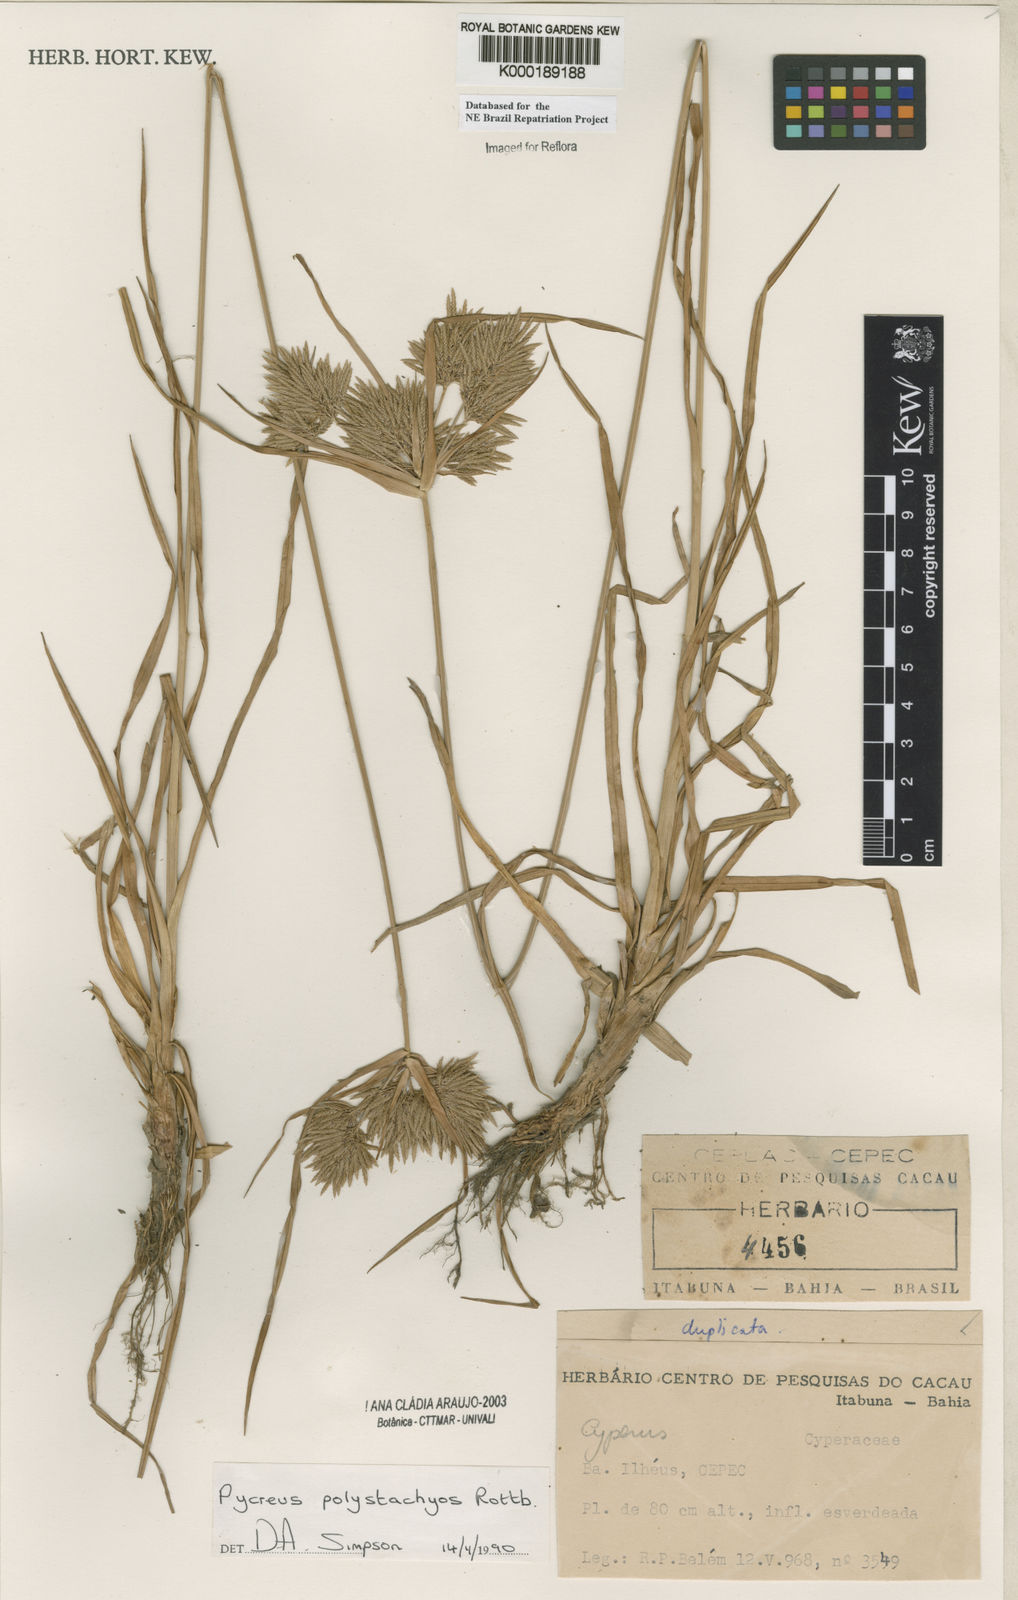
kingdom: Plantae
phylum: Tracheophyta
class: Liliopsida
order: Poales
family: Cyperaceae
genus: Cyperus
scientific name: Cyperus polystachyos
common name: Bunchy flat sedge
